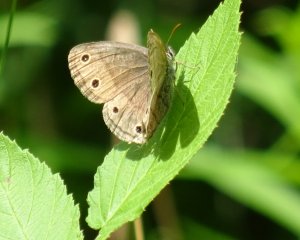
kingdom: Animalia
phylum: Arthropoda
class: Insecta
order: Lepidoptera
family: Nymphalidae
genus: Euptychia
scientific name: Euptychia cymela
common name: Little Wood Satyr
